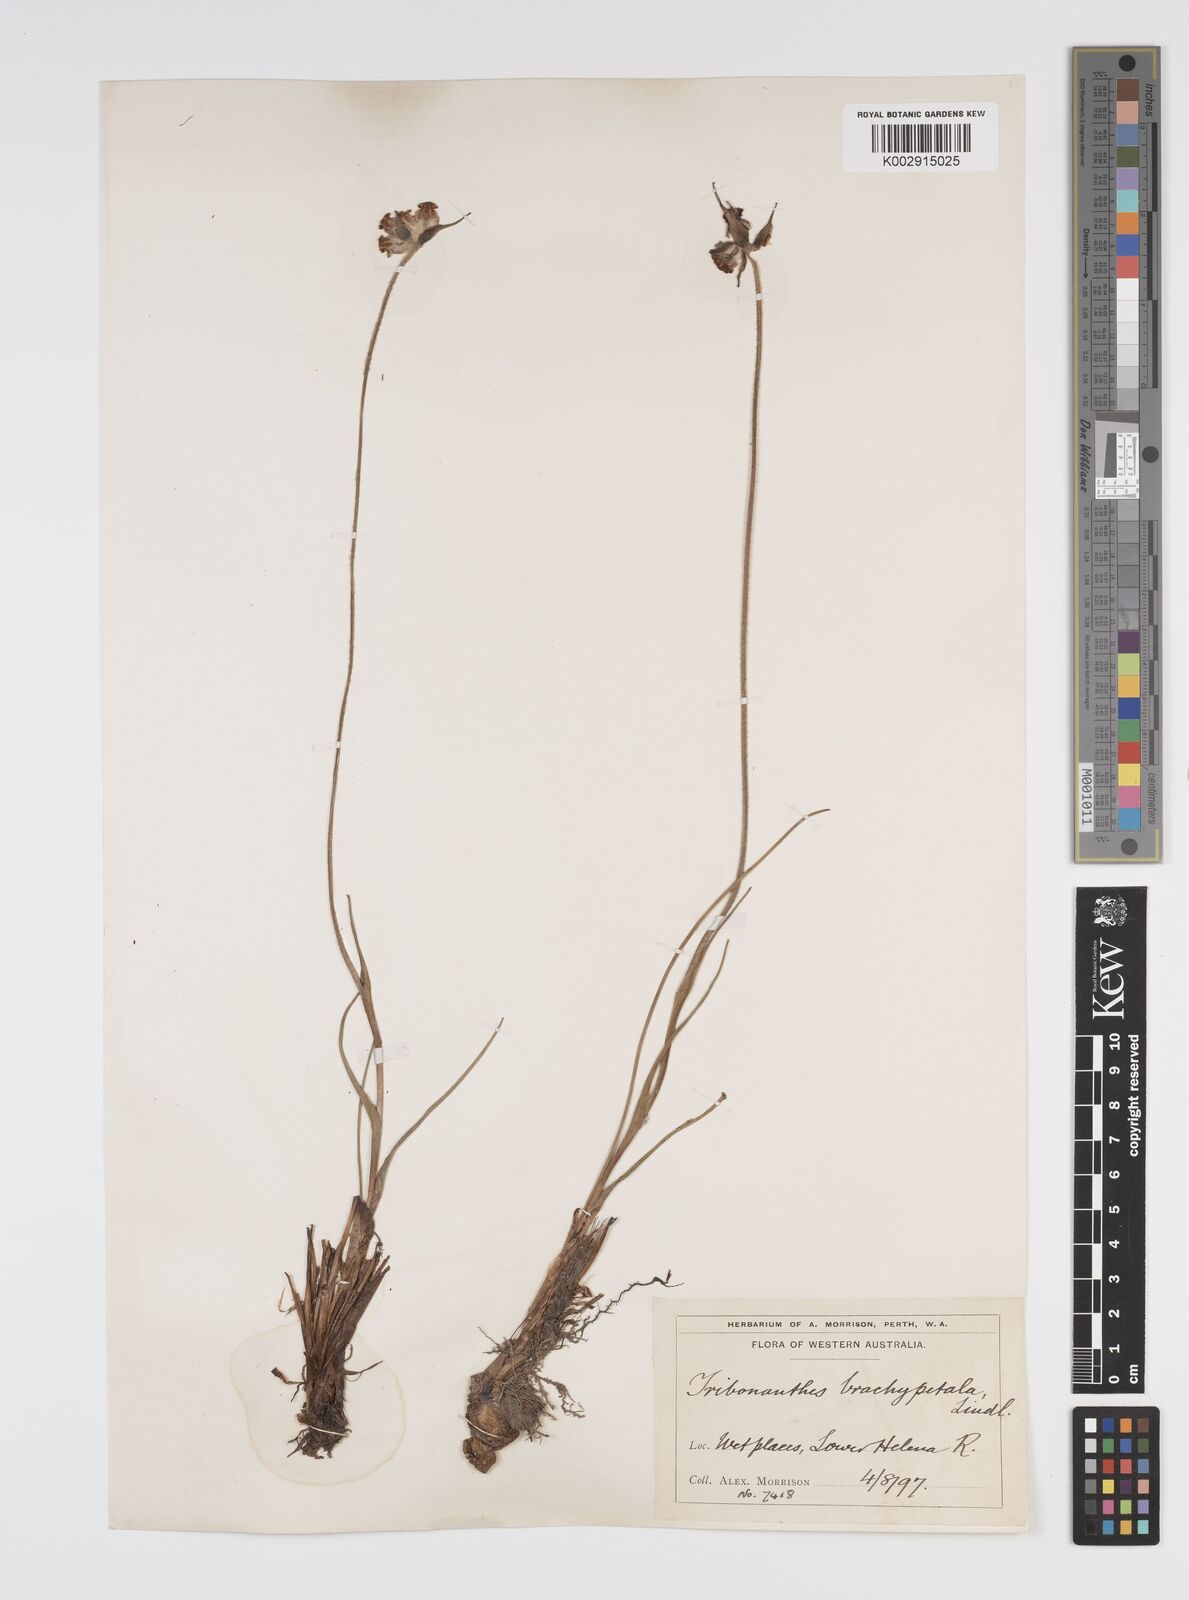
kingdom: Plantae
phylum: Tracheophyta
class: Liliopsida
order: Commelinales
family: Haemodoraceae
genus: Tribonanthes
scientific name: Tribonanthes brachypetala
